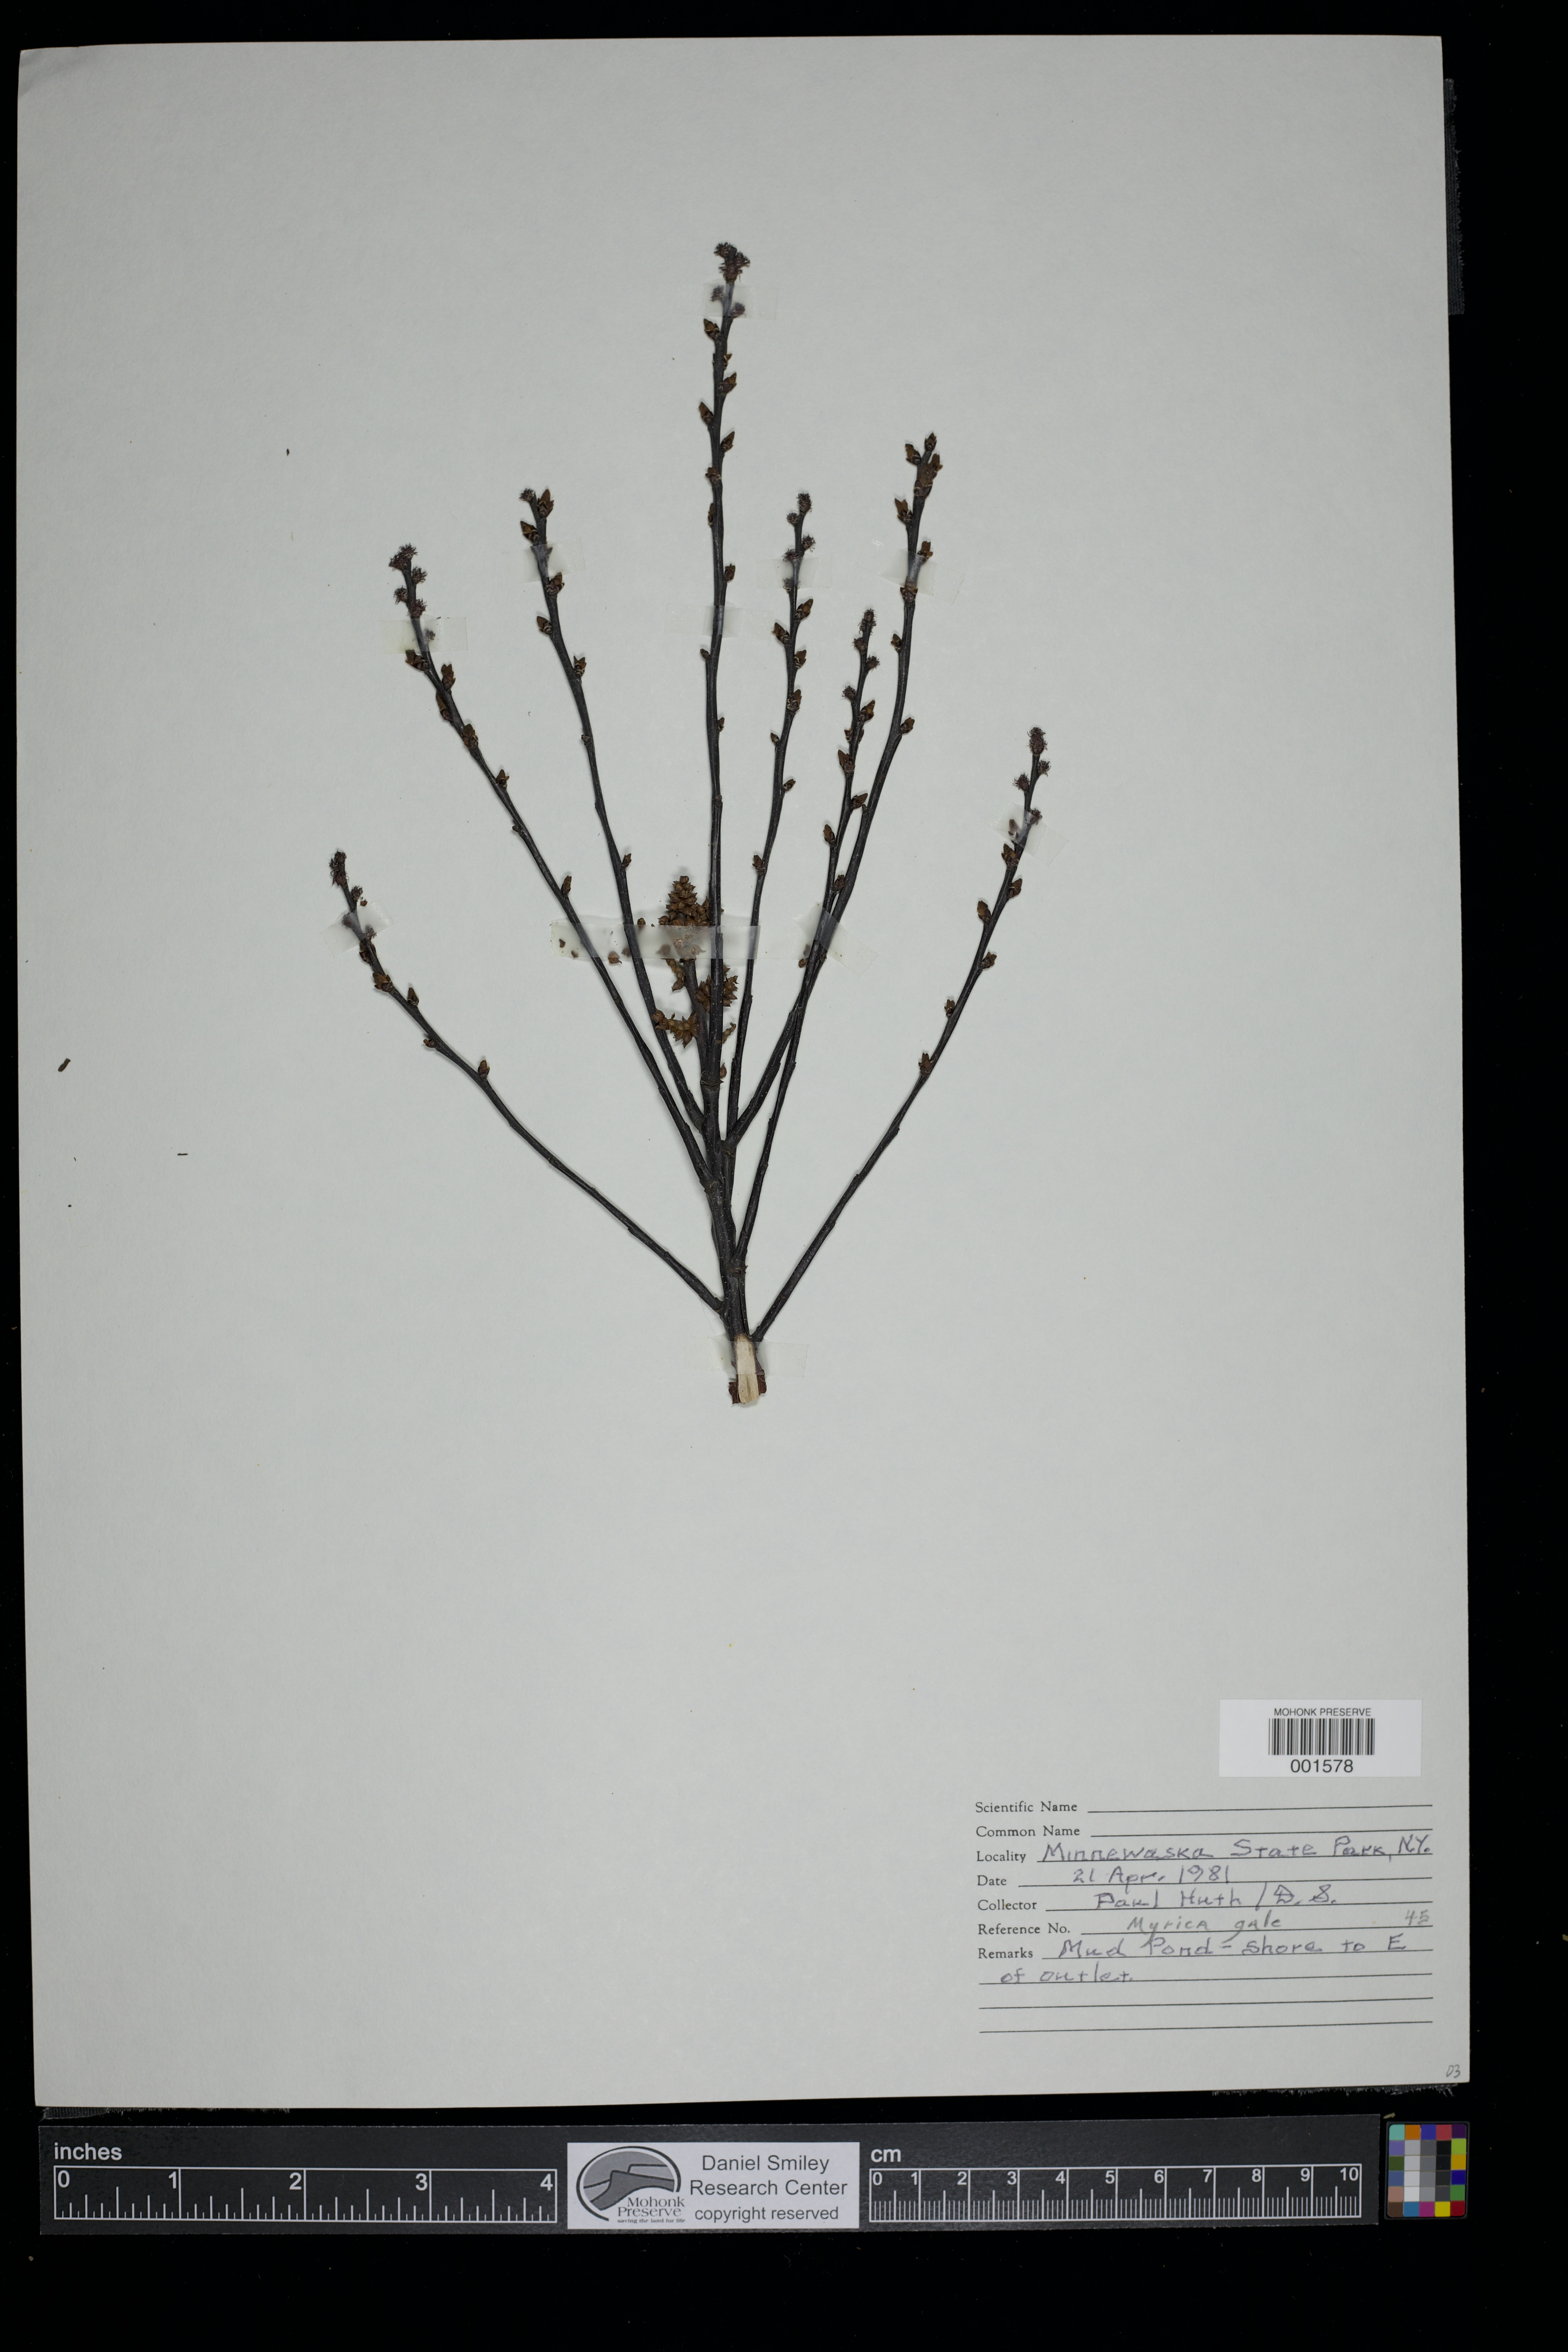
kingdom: Plantae
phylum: Tracheophyta
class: Magnoliopsida
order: Fagales
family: Myricaceae
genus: Myrica
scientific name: Myrica gale
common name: Sweet gale
